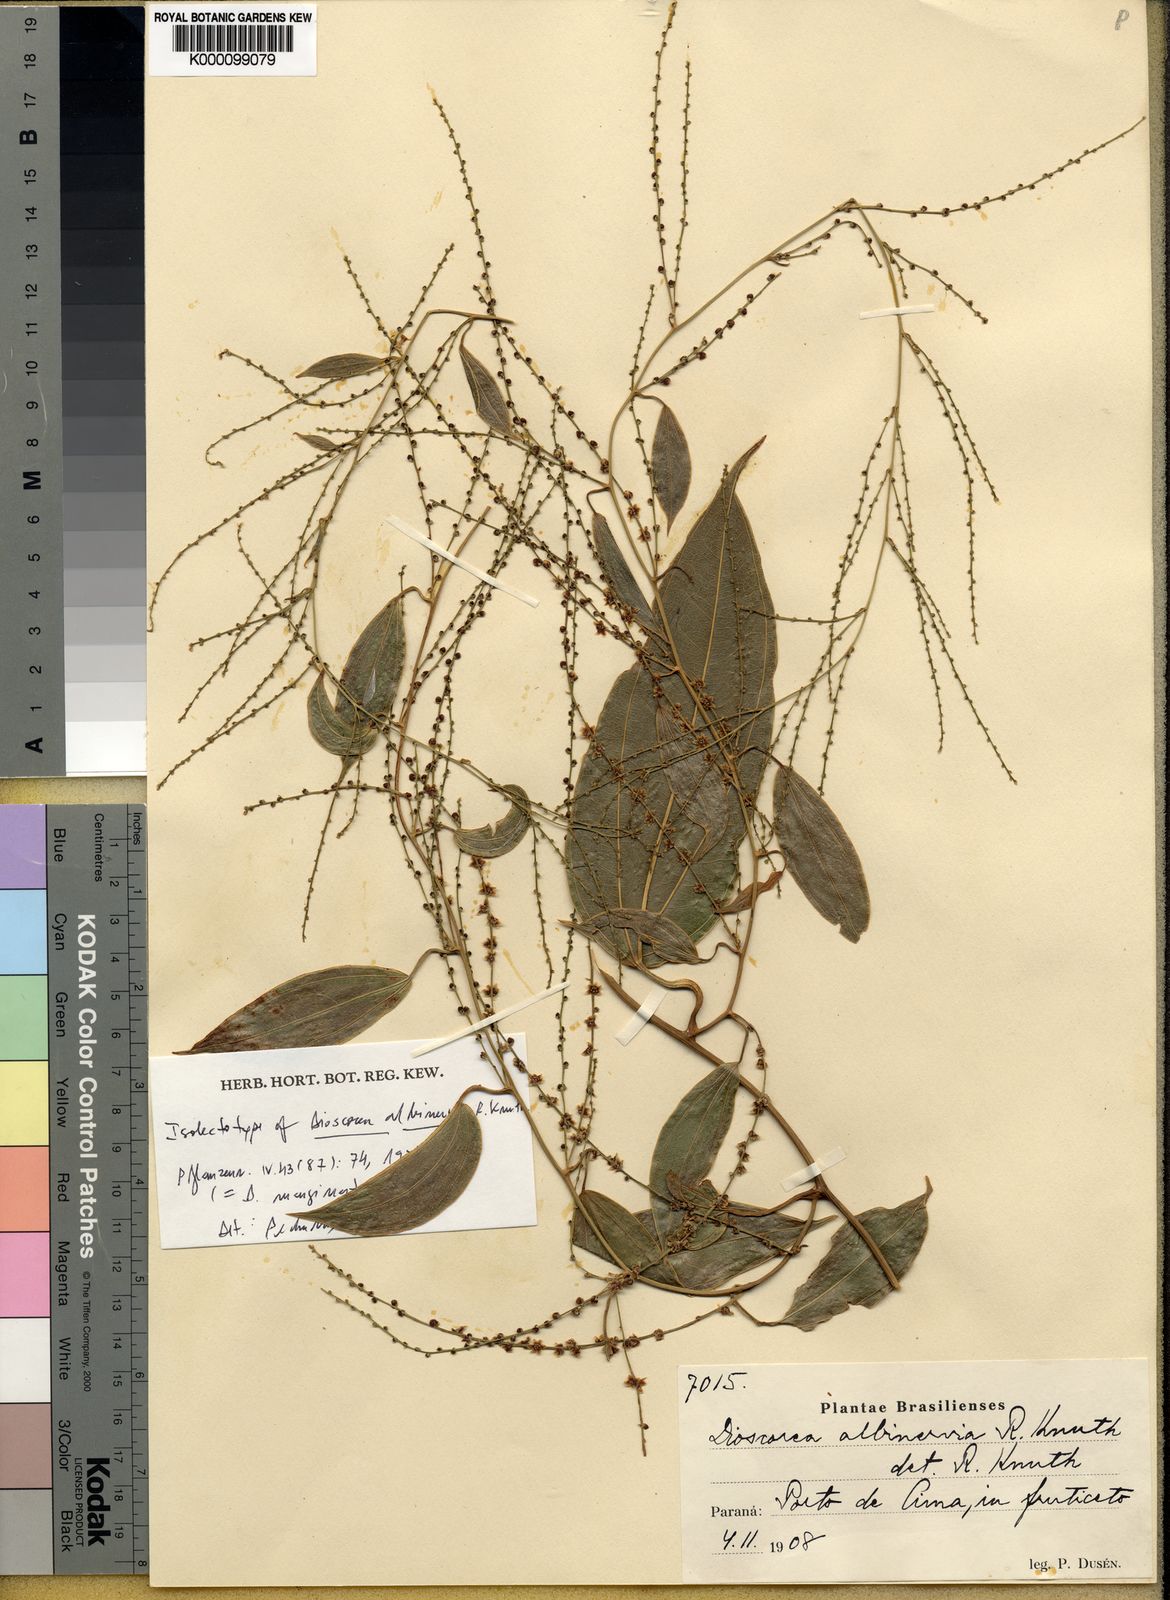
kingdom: Plantae
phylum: Tracheophyta
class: Liliopsida
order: Dioscoreales
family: Dioscoreaceae
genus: Dioscorea
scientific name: Dioscorea marginata
